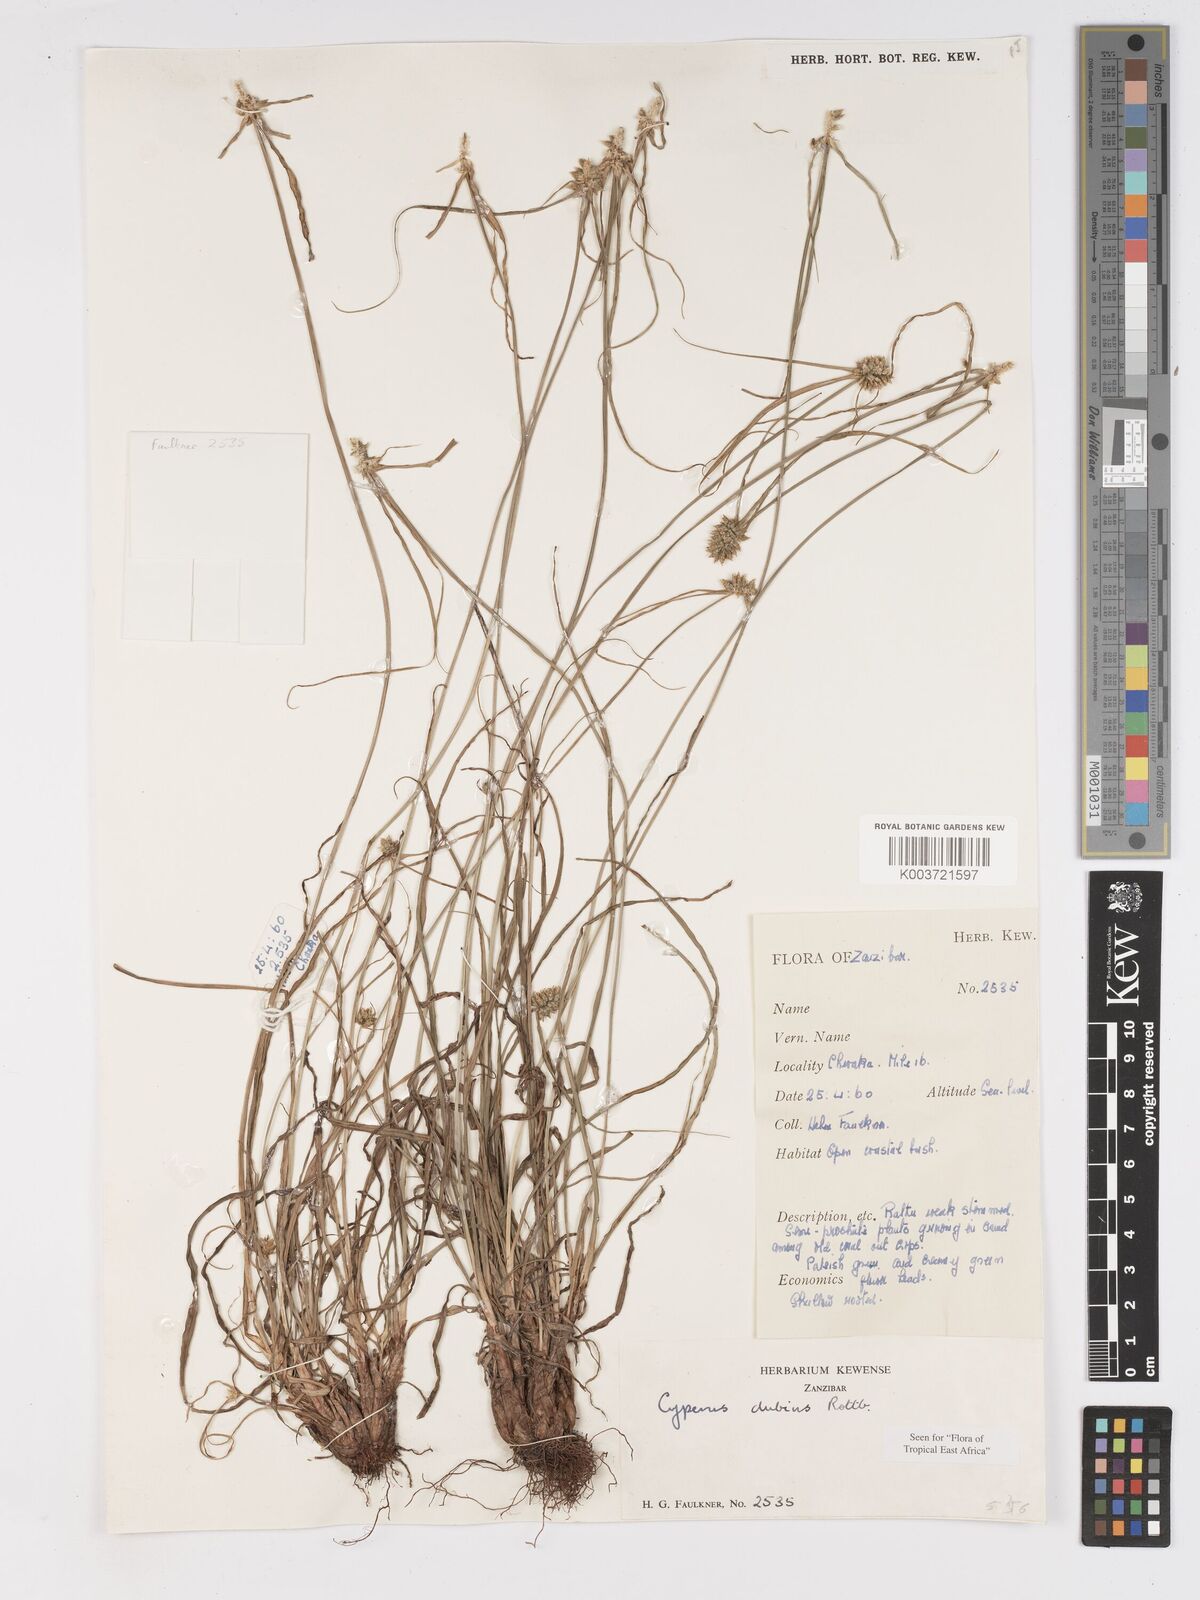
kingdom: Plantae
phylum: Tracheophyta
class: Liliopsida
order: Poales
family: Cyperaceae
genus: Cyperus
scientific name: Cyperus dubius
